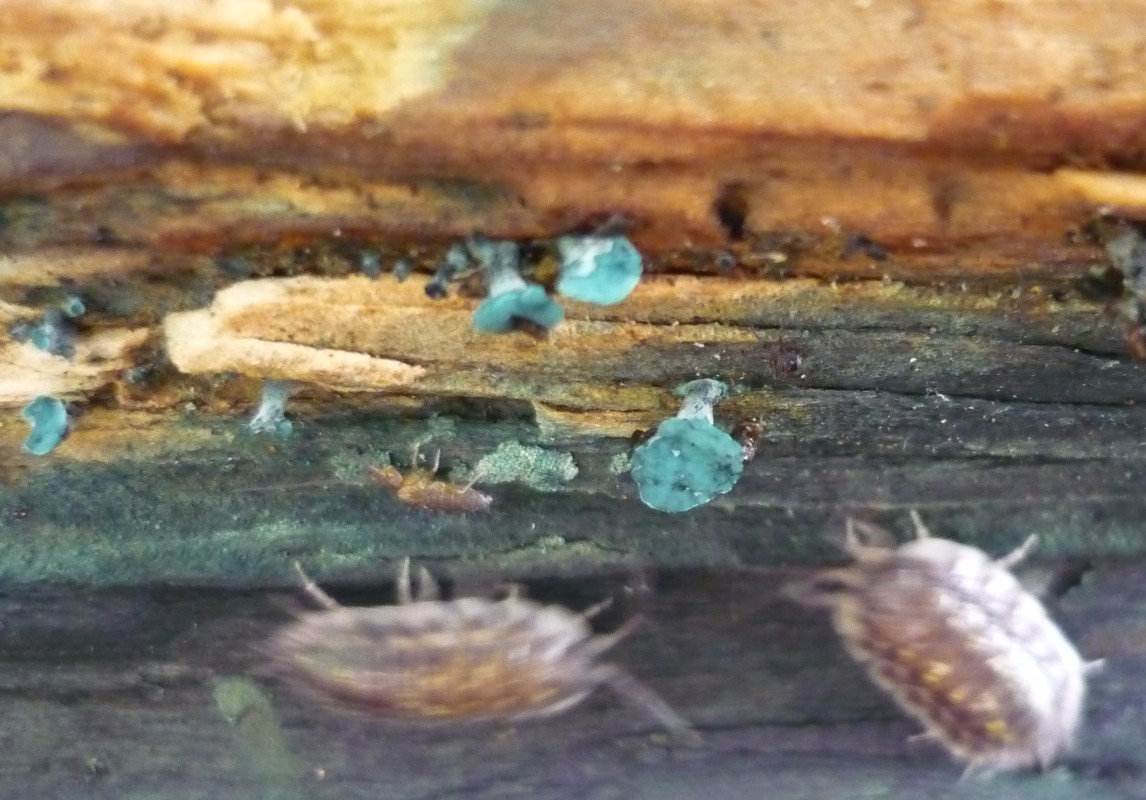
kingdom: Fungi
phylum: Ascomycota
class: Leotiomycetes
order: Helotiales
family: Chlorociboriaceae
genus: Chlorociboria
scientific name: Chlorociboria aeruginascens
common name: almindelig grønskive
